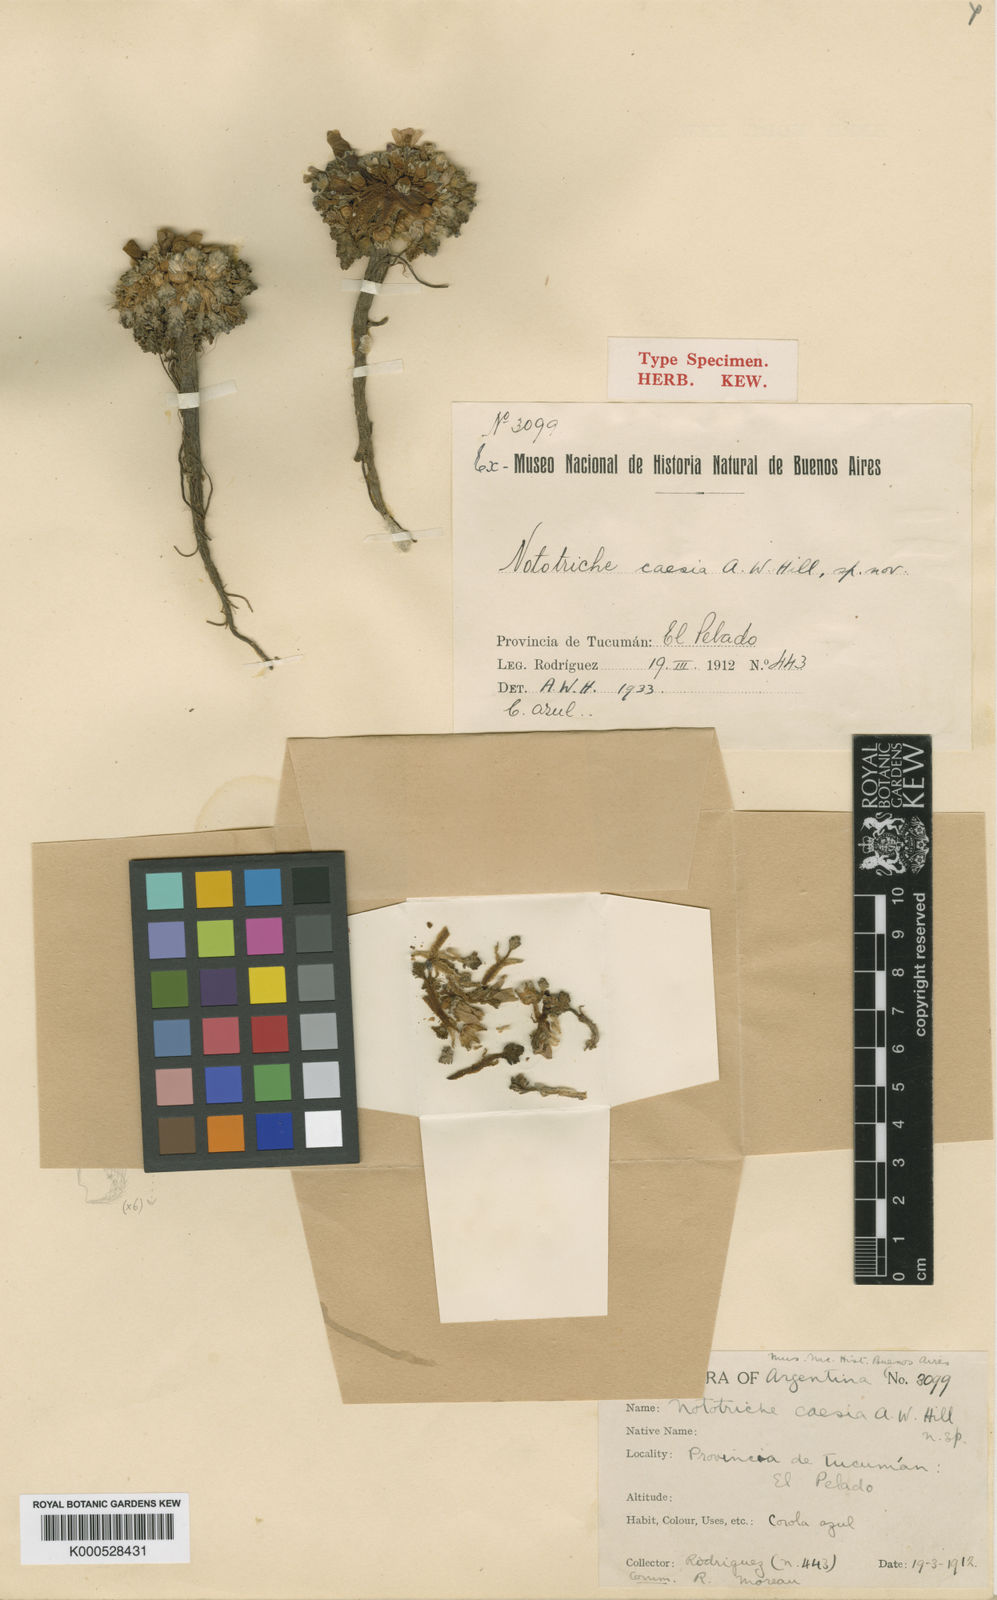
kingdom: Plantae
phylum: Tracheophyta
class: Magnoliopsida
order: Malvales
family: Malvaceae
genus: Nototriche
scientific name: Nototriche caesia
